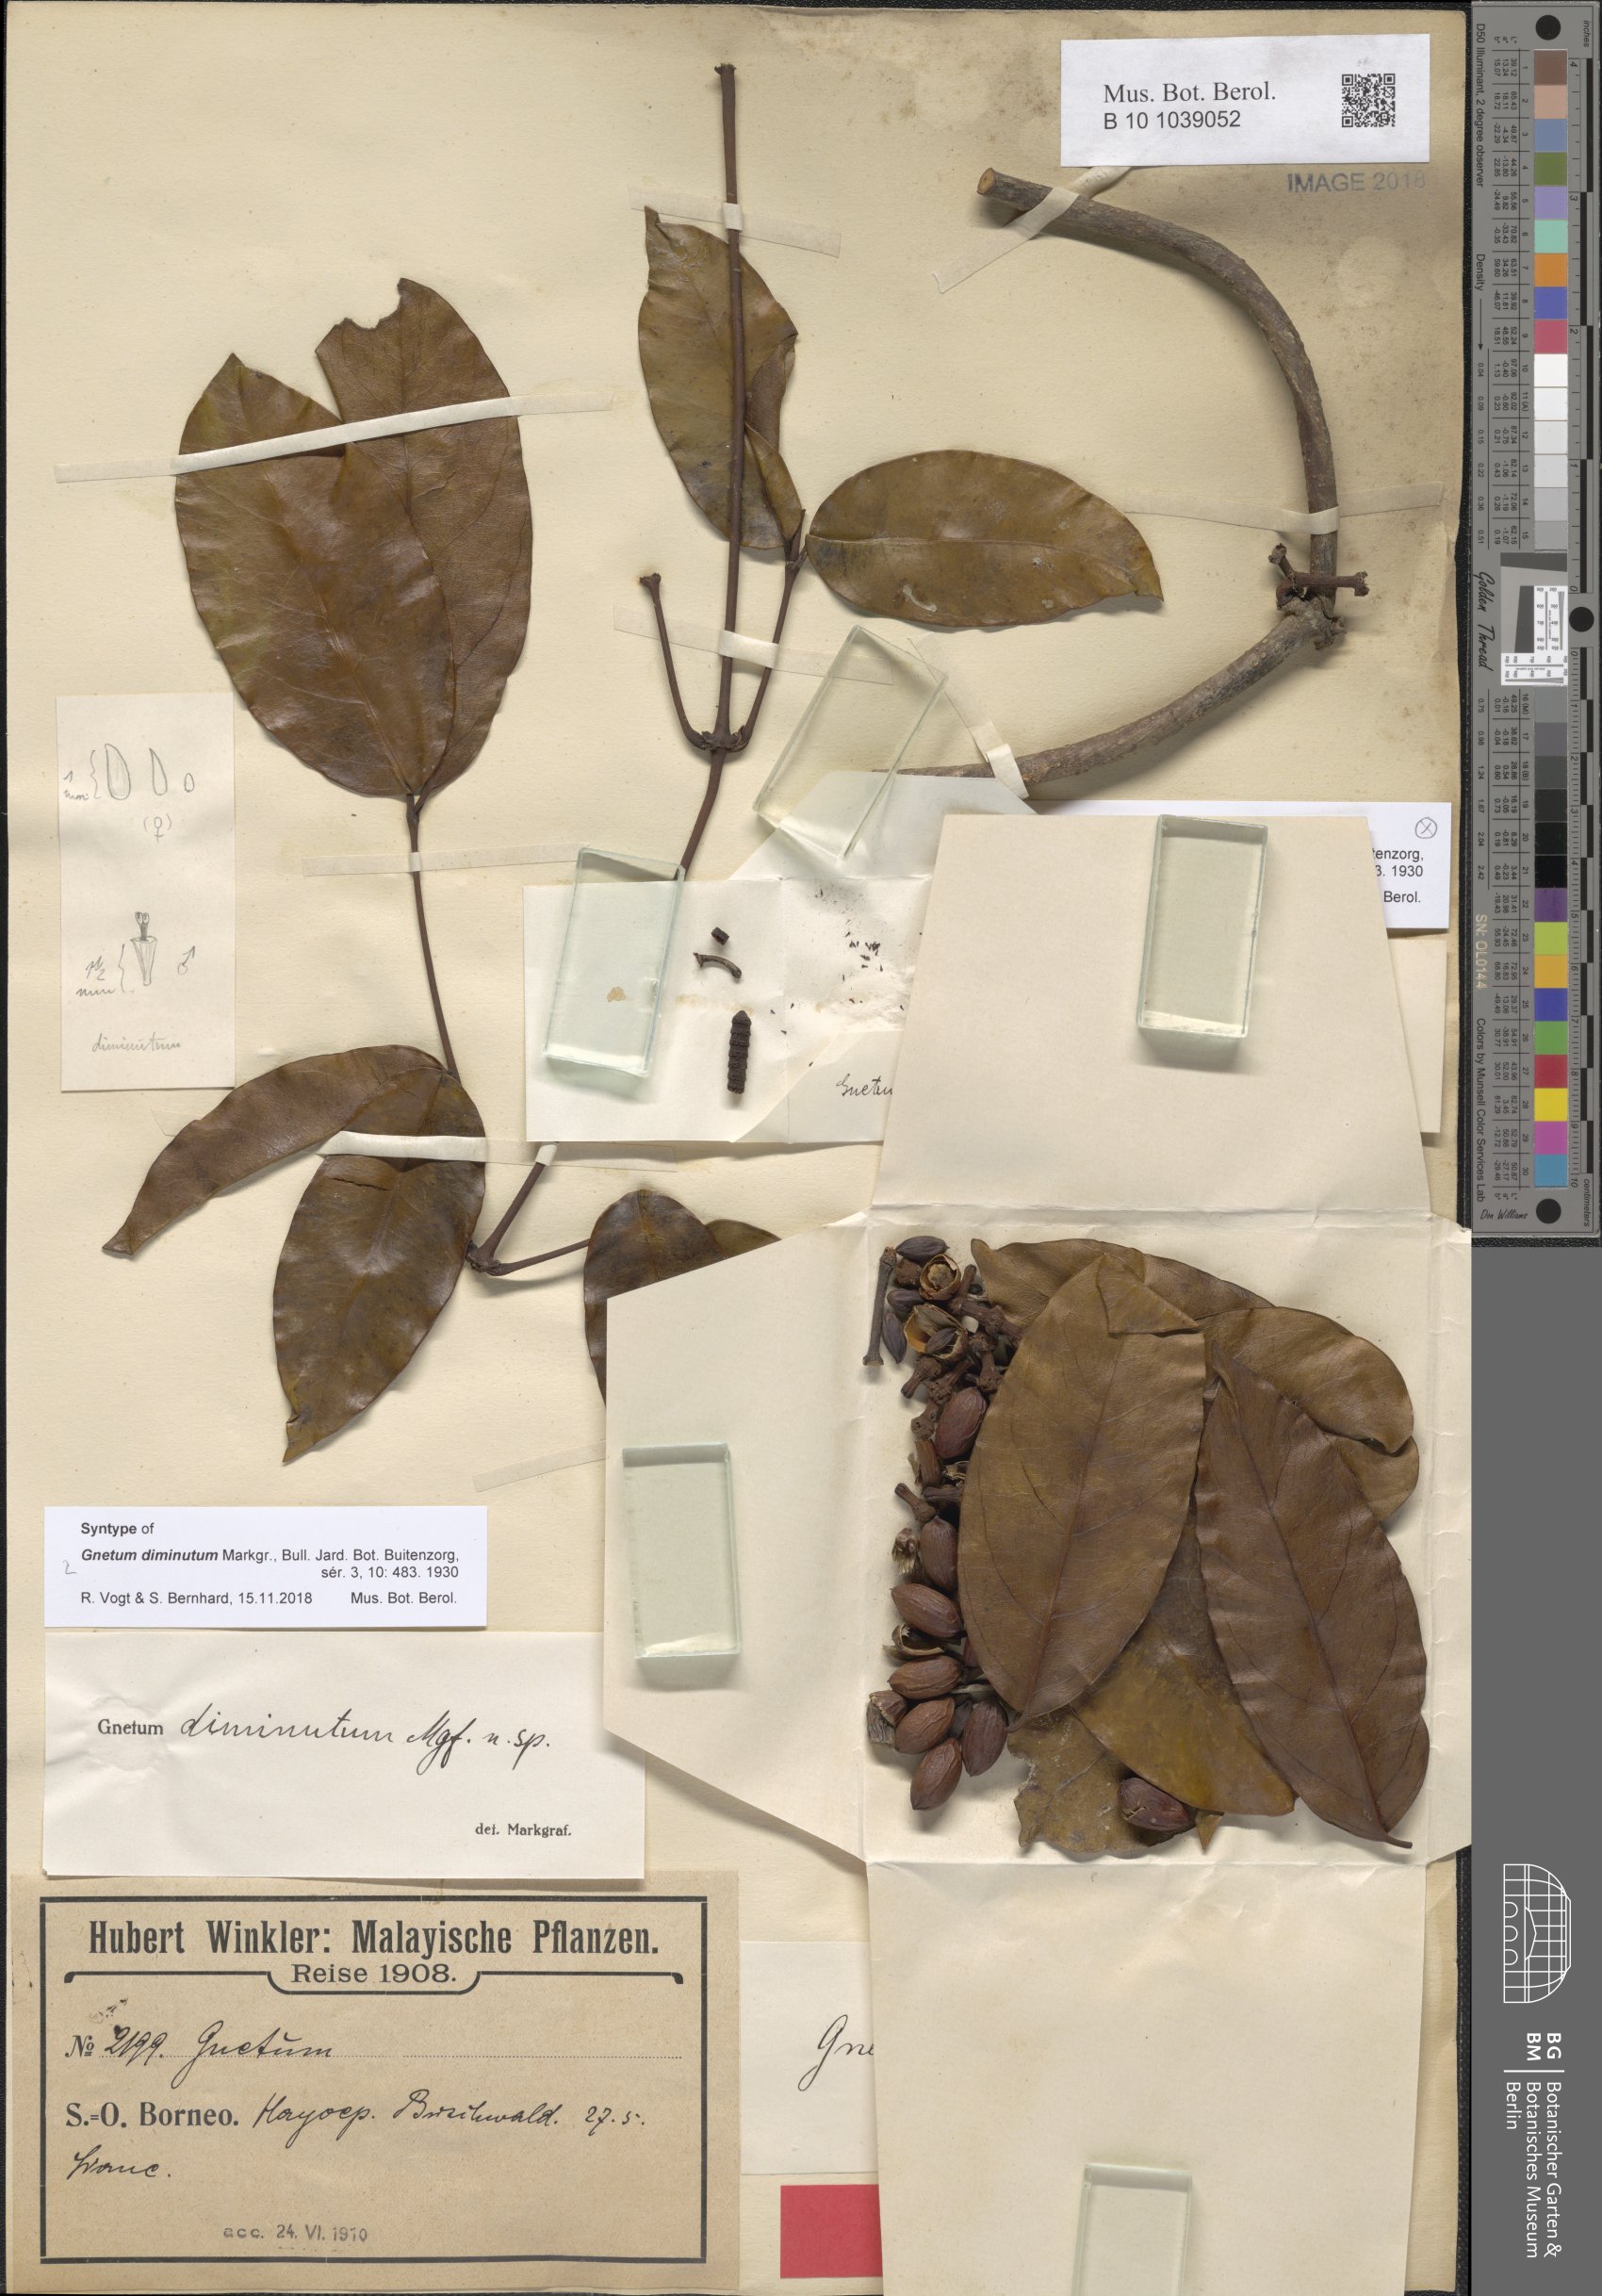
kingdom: Plantae
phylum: Tracheophyta
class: Gnetopsida
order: Gnetales
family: Gnetaceae
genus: Gnetum
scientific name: Gnetum diminutum
